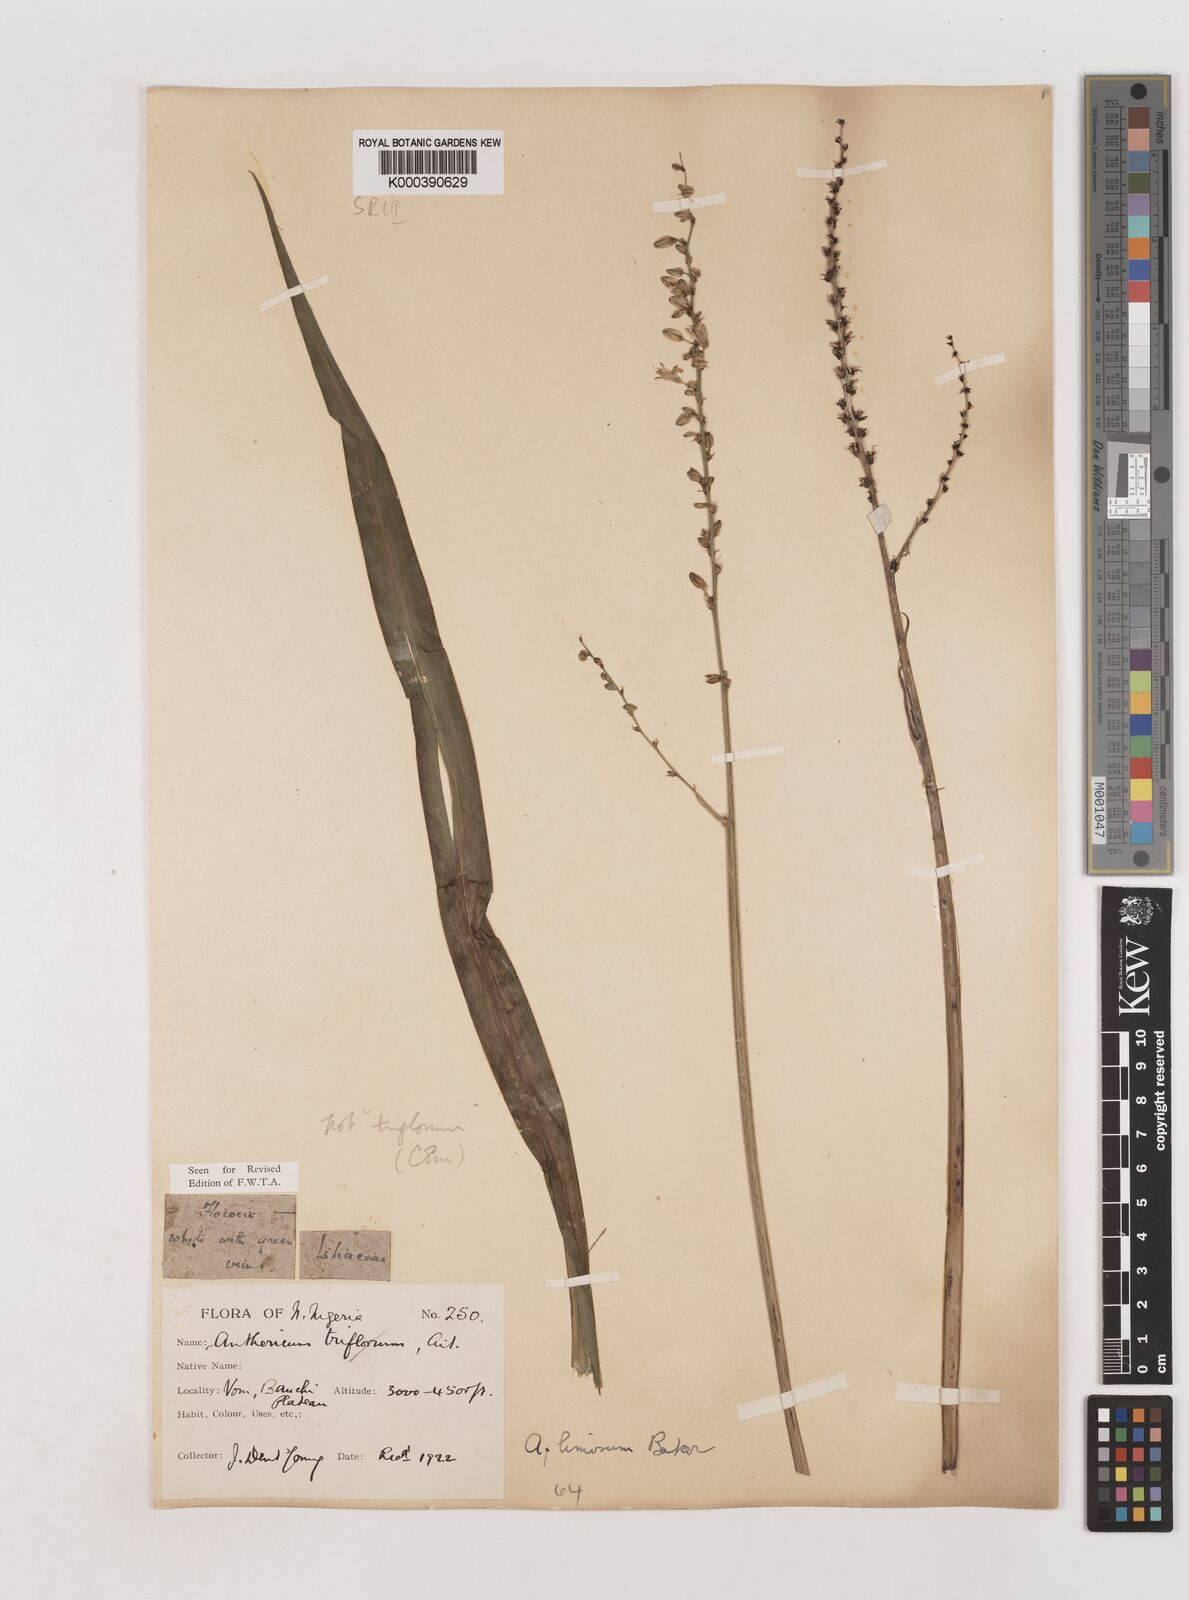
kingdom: Plantae
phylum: Tracheophyta
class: Liliopsida
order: Asparagales
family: Asparagaceae
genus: Chlorophytum
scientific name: Chlorophytum limosum
